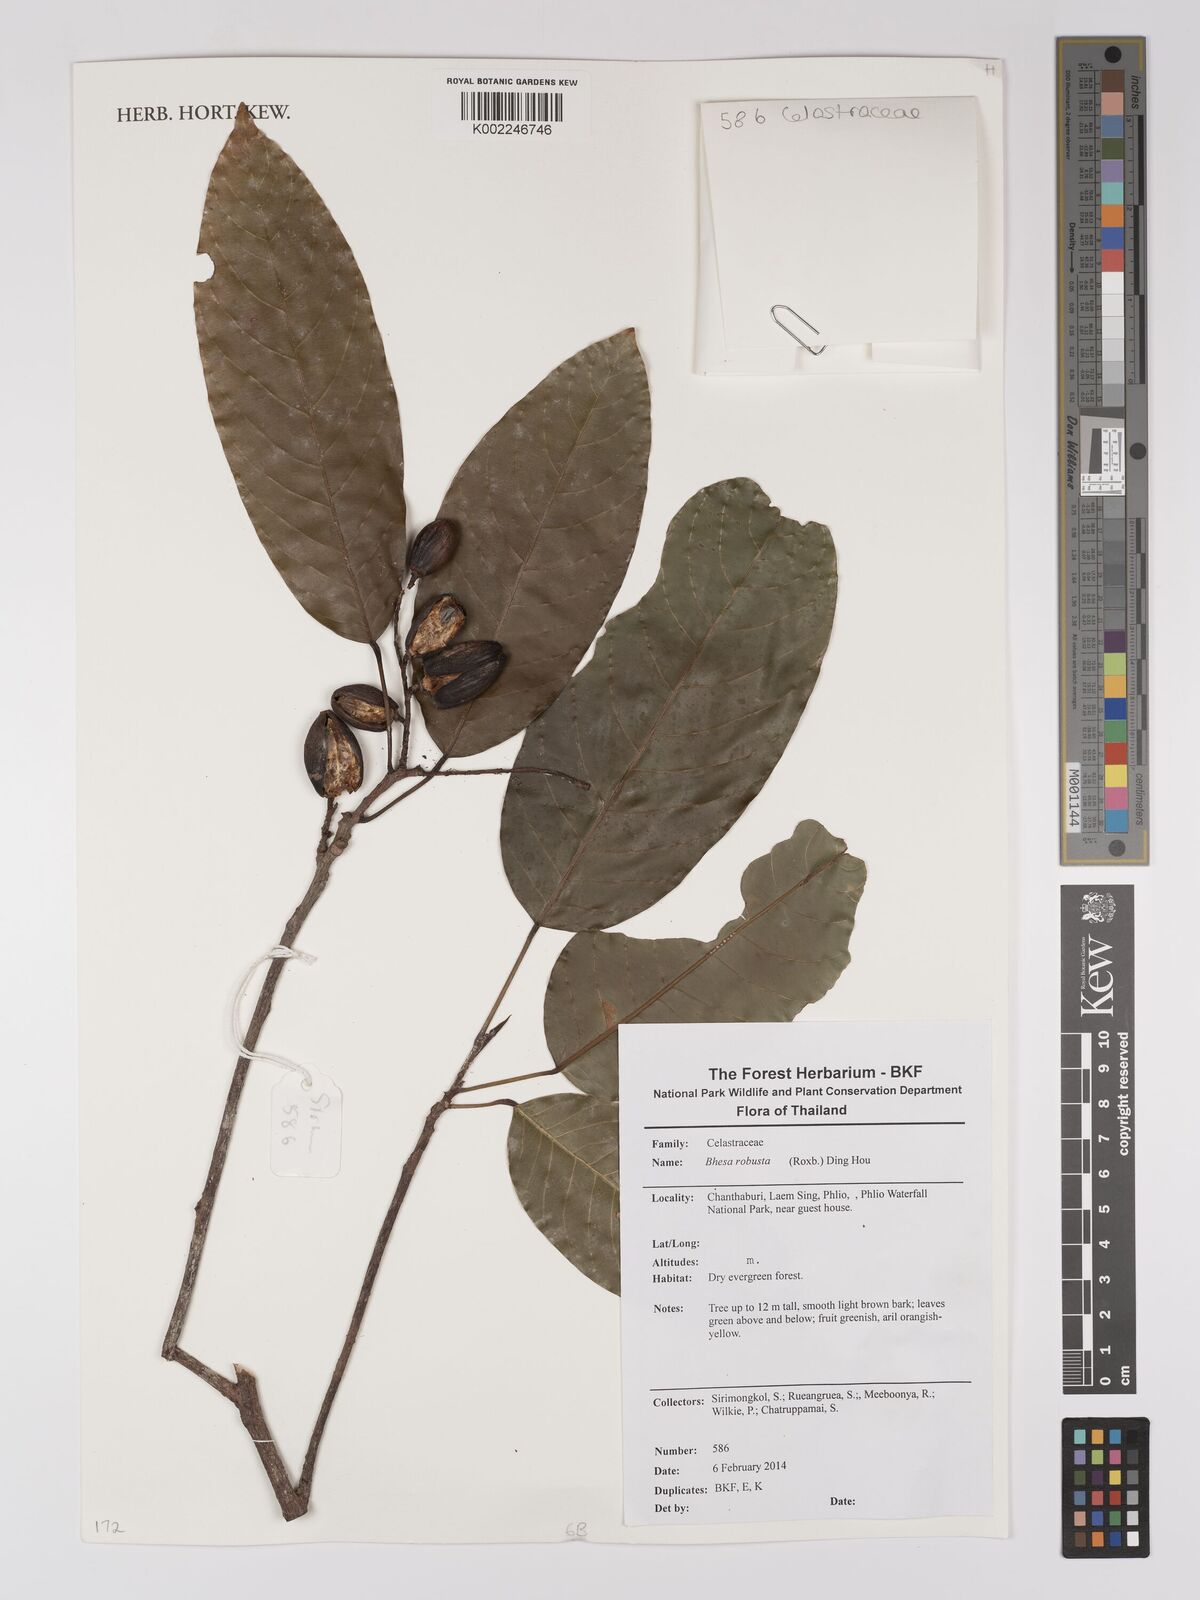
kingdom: Plantae
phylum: Tracheophyta
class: Magnoliopsida
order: Malpighiales
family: Centroplacaceae
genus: Bhesa
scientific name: Bhesa robusta
